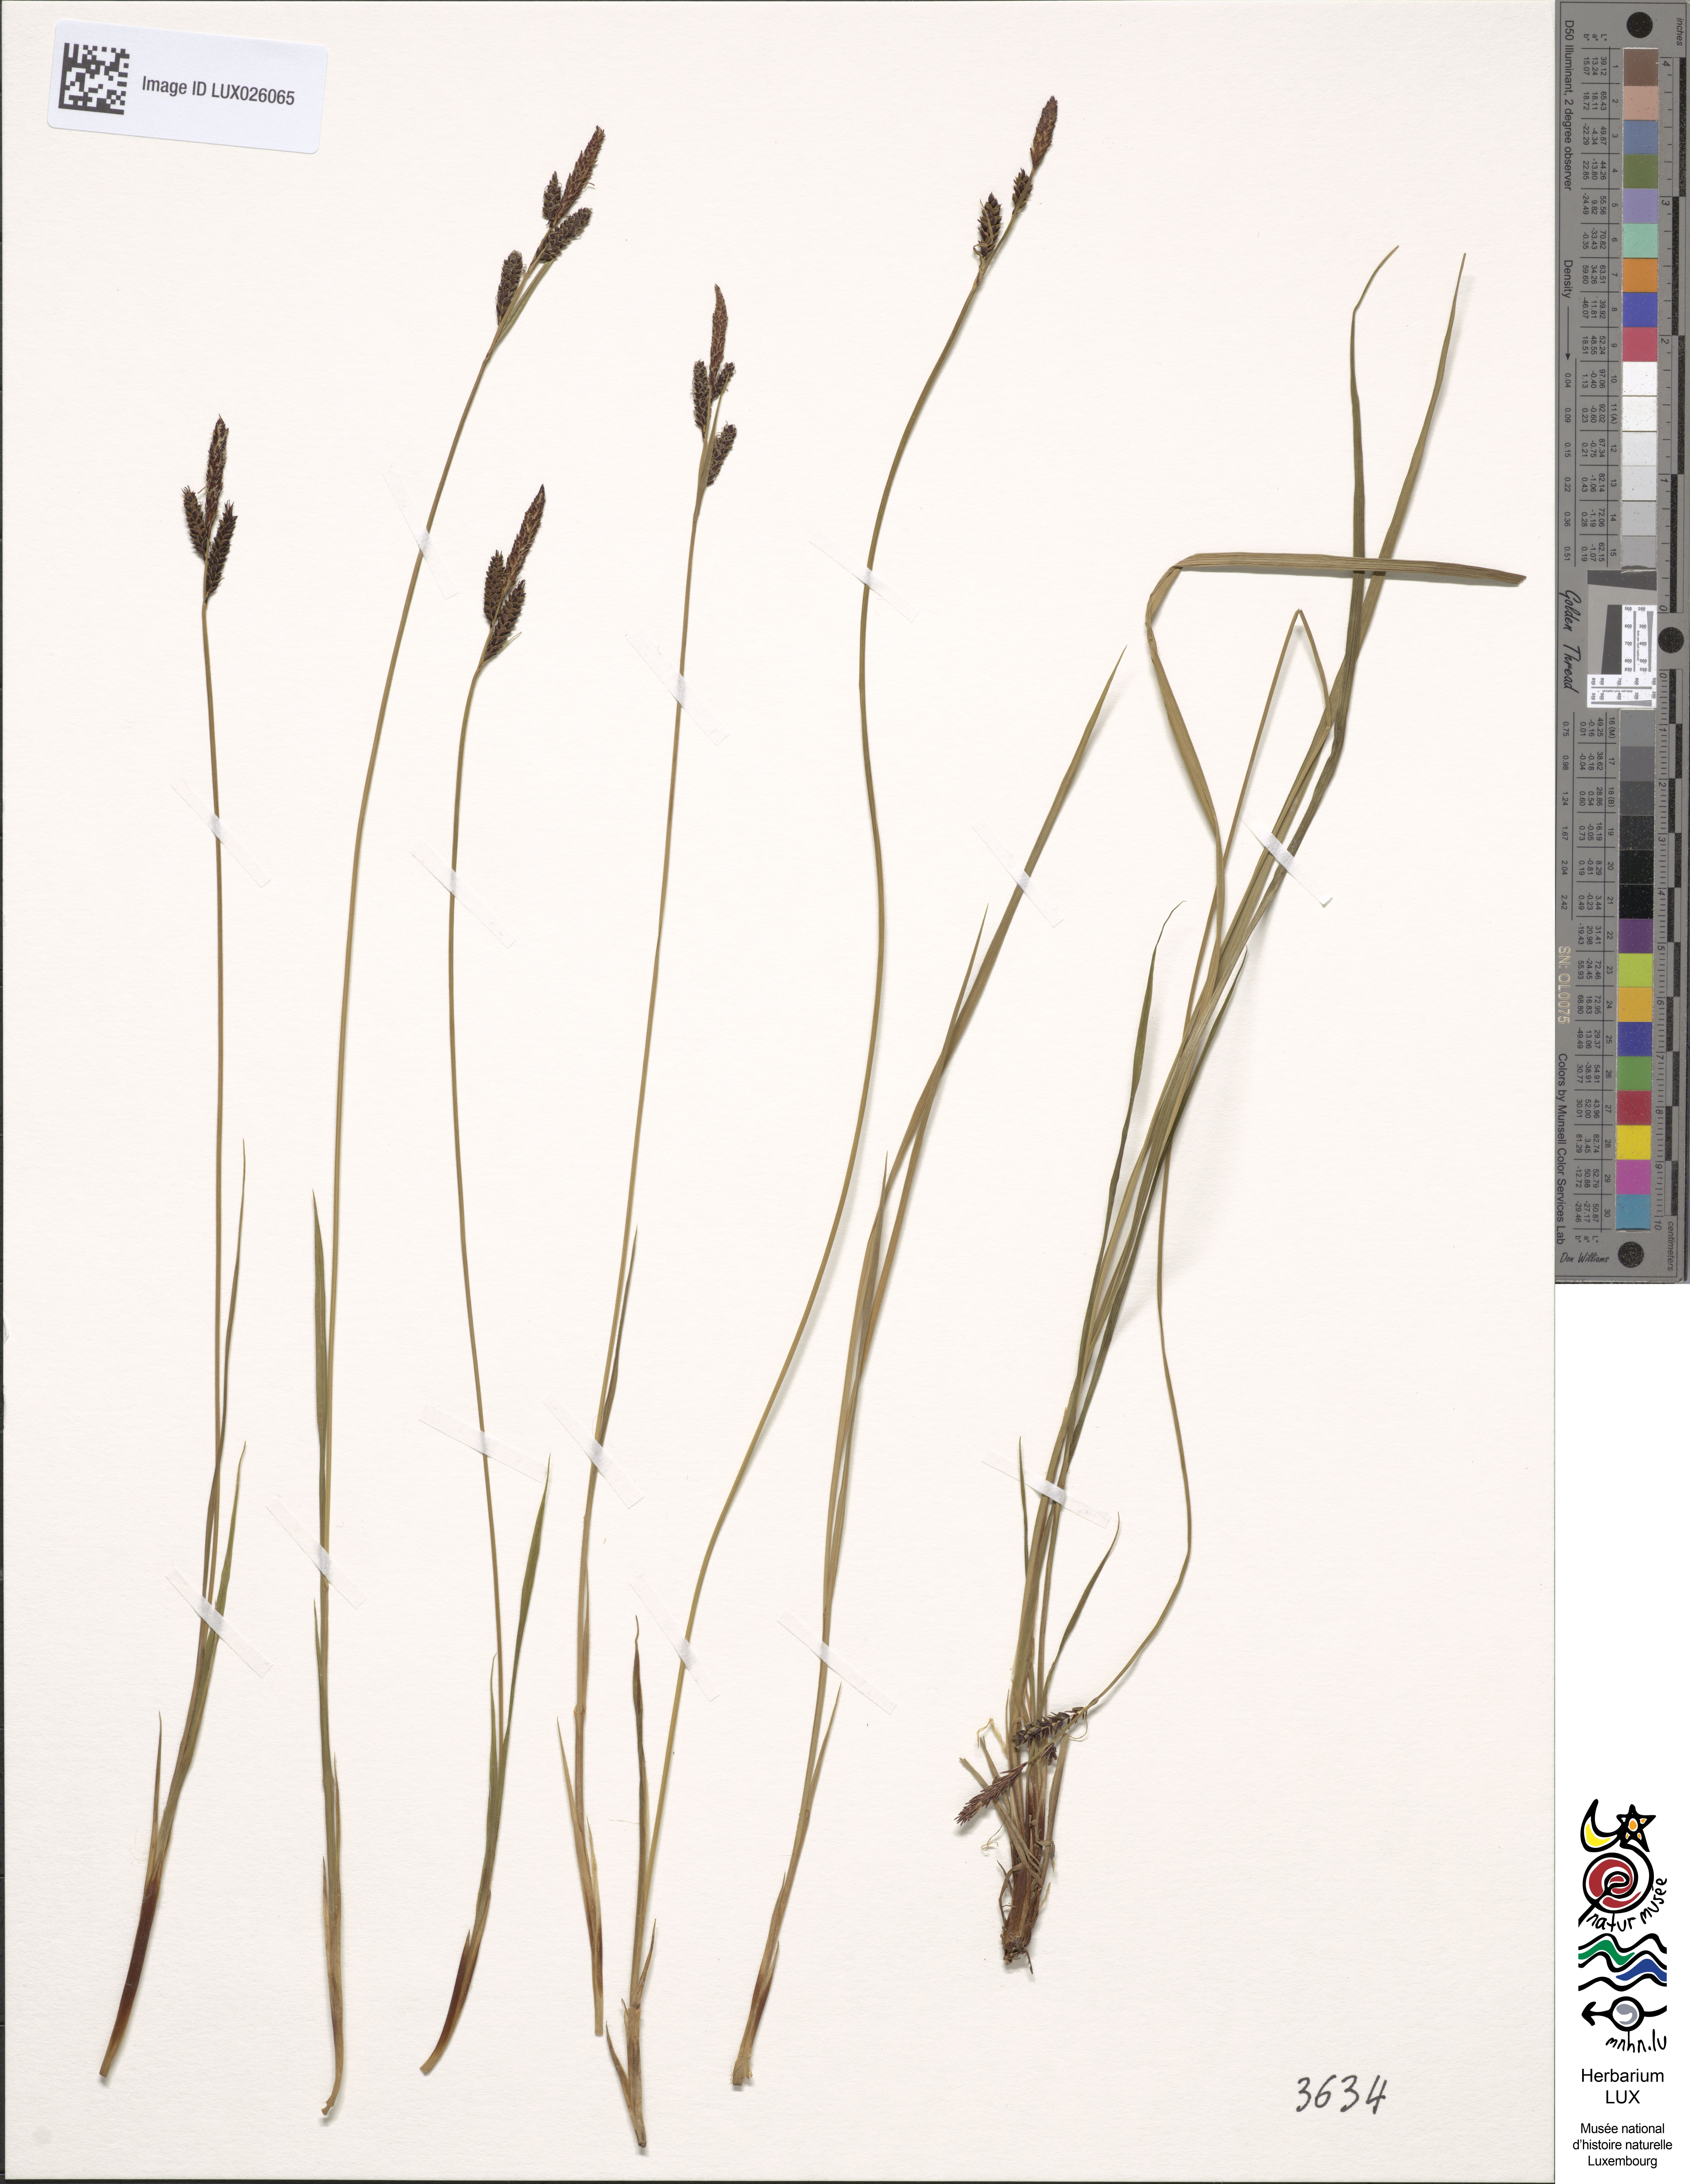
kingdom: Plantae
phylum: Tracheophyta
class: Liliopsida
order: Poales
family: Cyperaceae
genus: Carex
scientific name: Carex cespitosa
